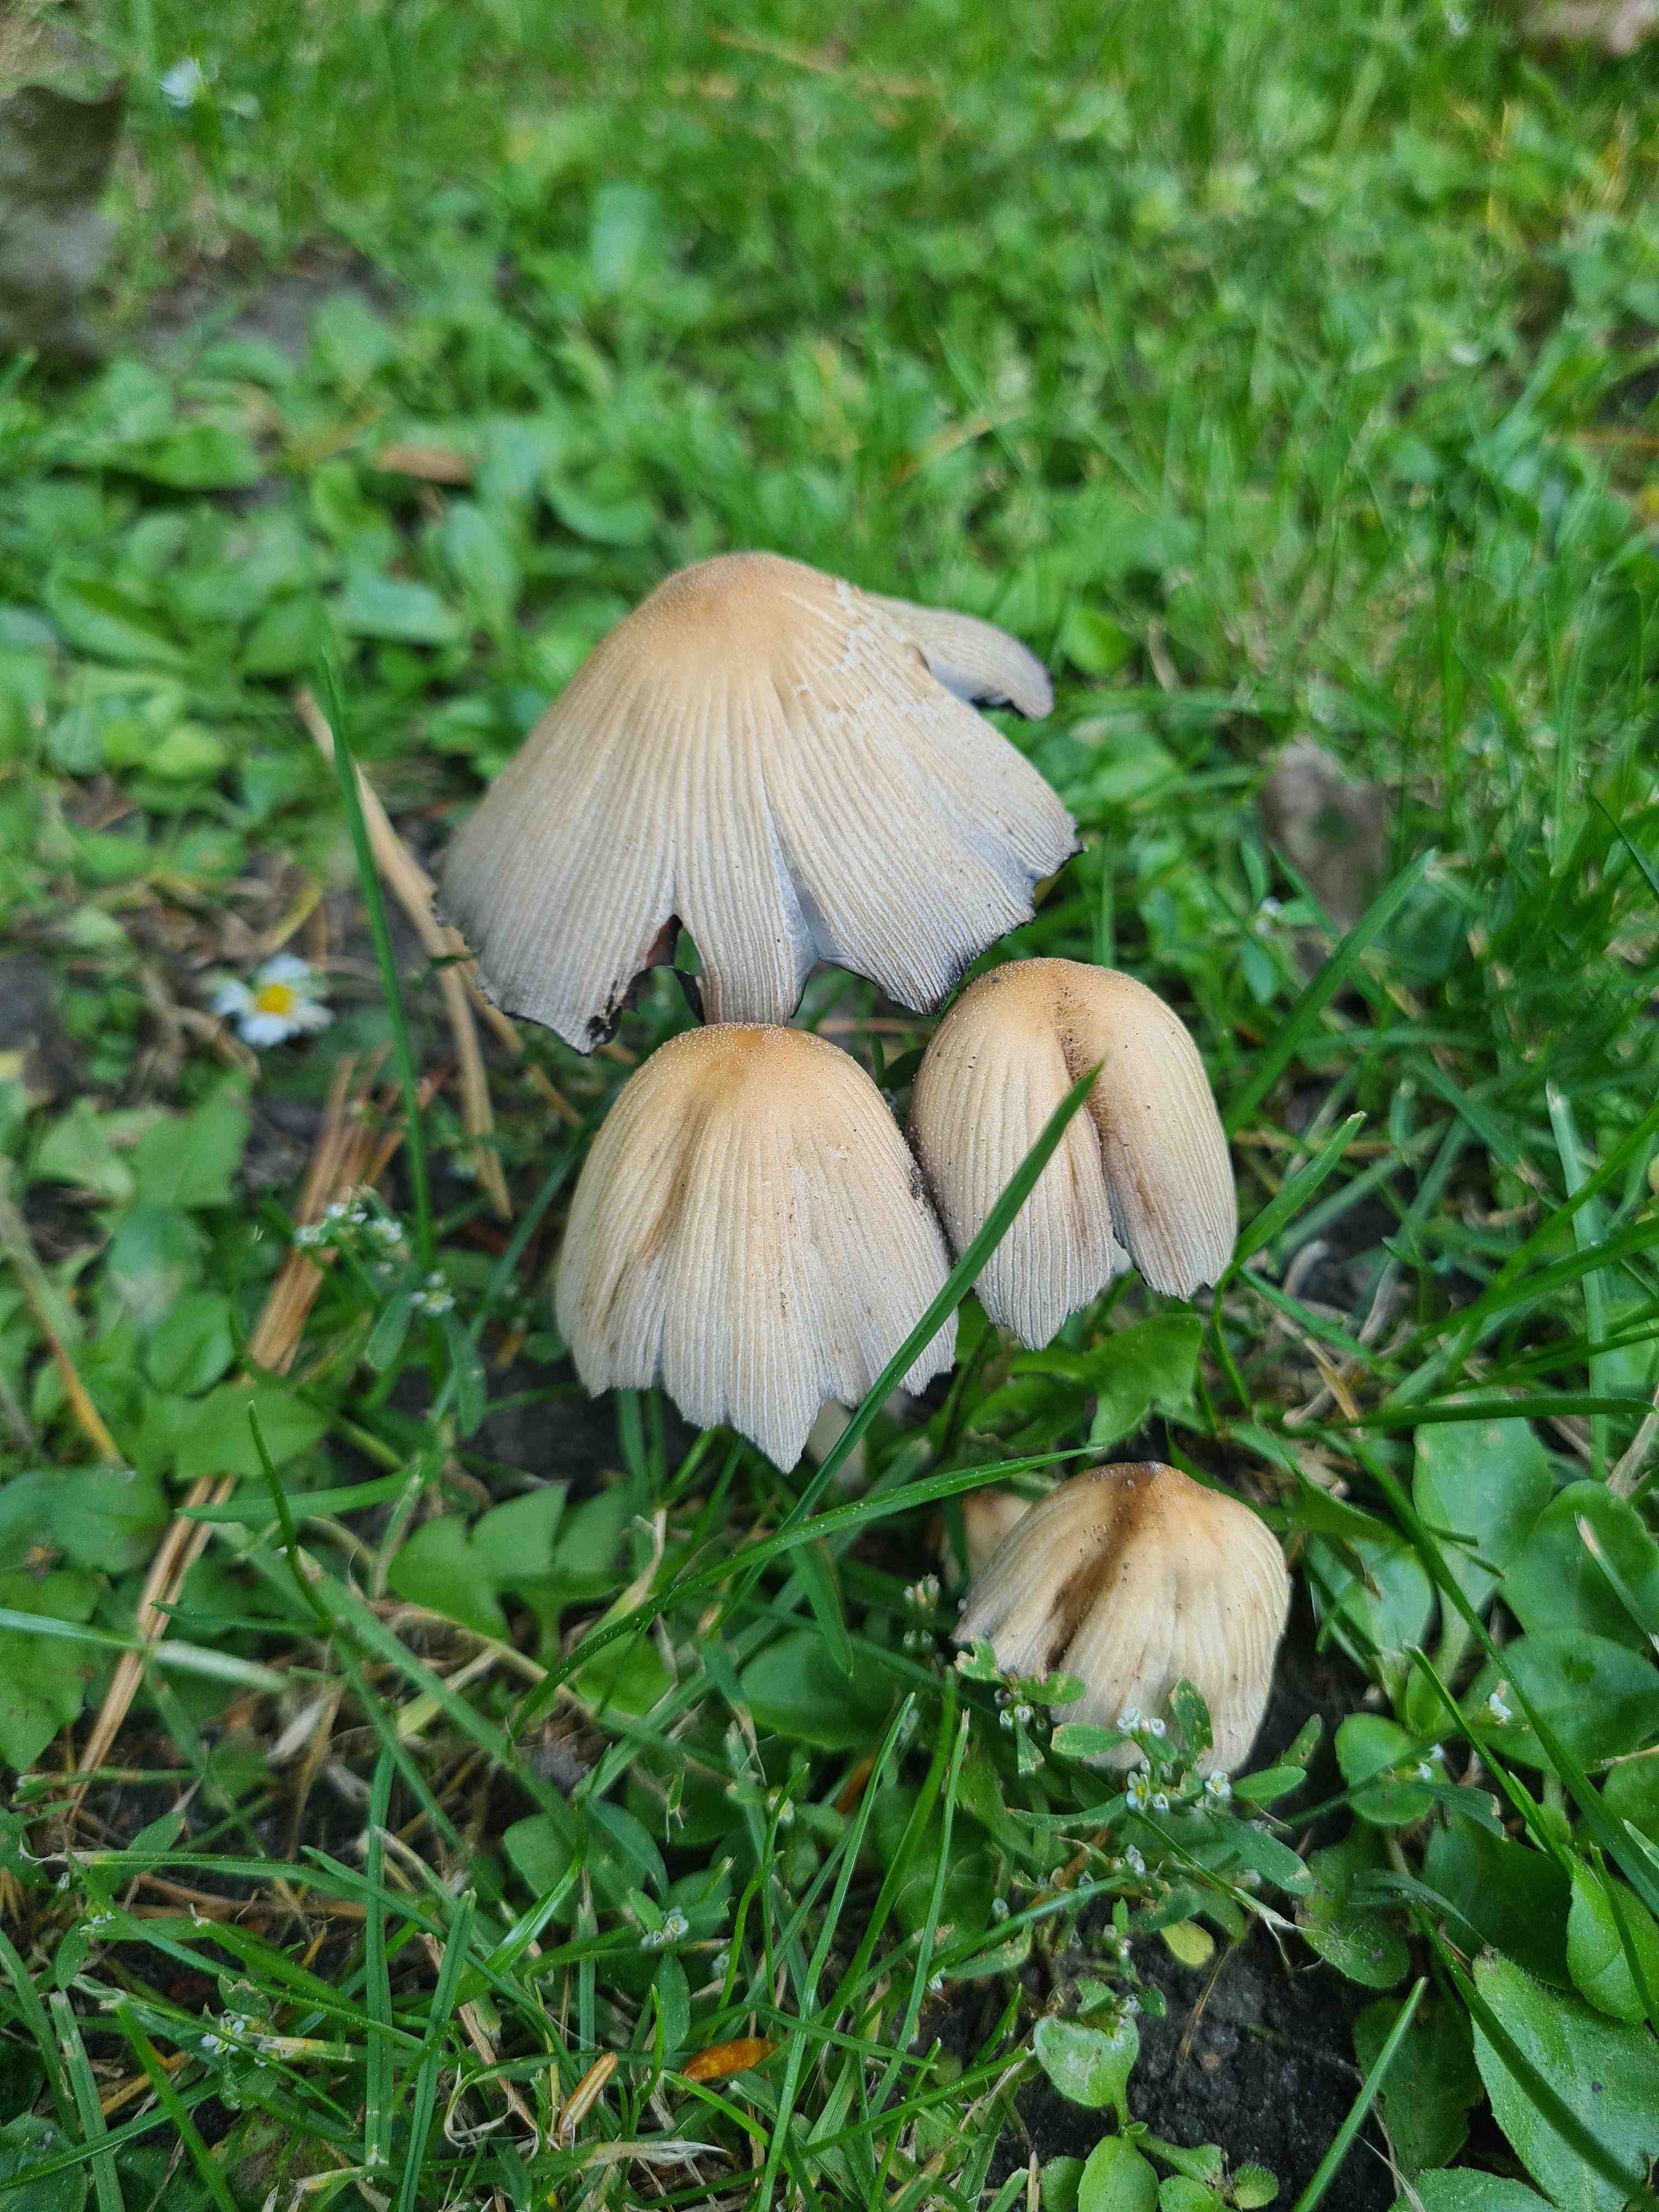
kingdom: Fungi
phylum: Basidiomycota
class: Agaricomycetes
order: Agaricales
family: Psathyrellaceae
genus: Coprinellus
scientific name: Coprinellus micaceus
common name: glimmer-blækhat
